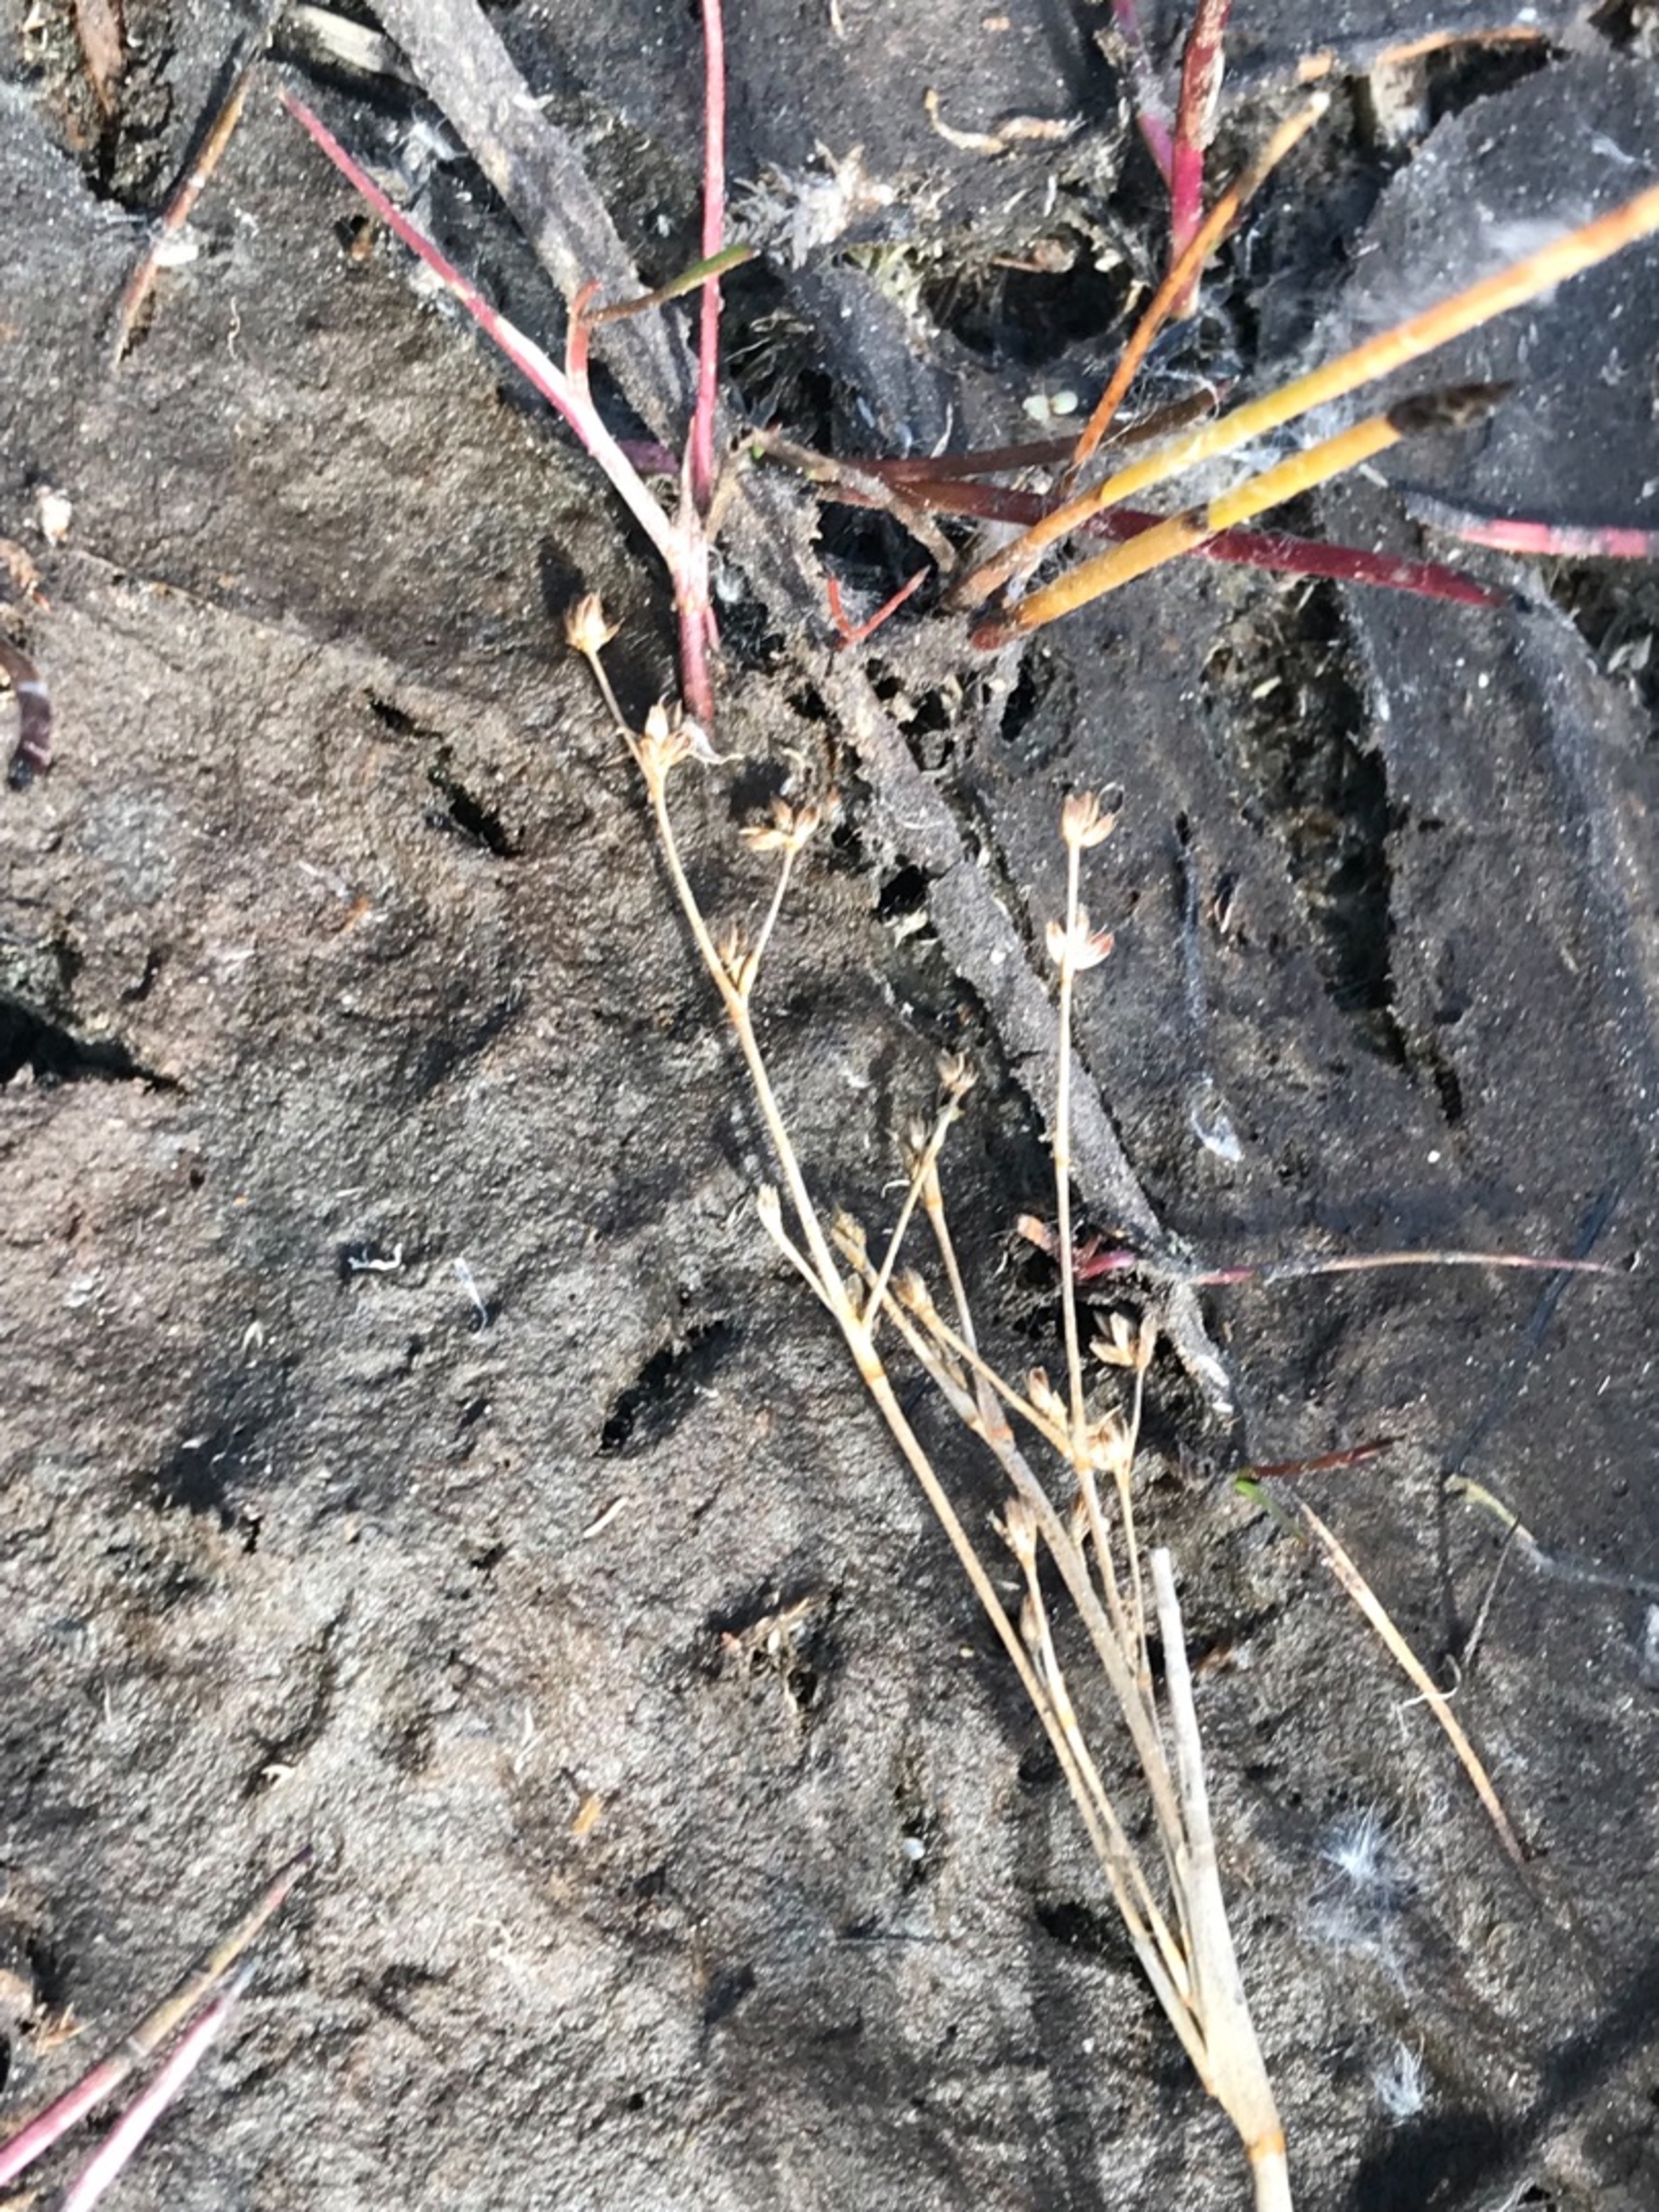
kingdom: Plantae
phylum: Tracheophyta
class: Liliopsida
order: Poales
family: Juncaceae
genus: Juncus
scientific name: Juncus
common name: Sivslægten
